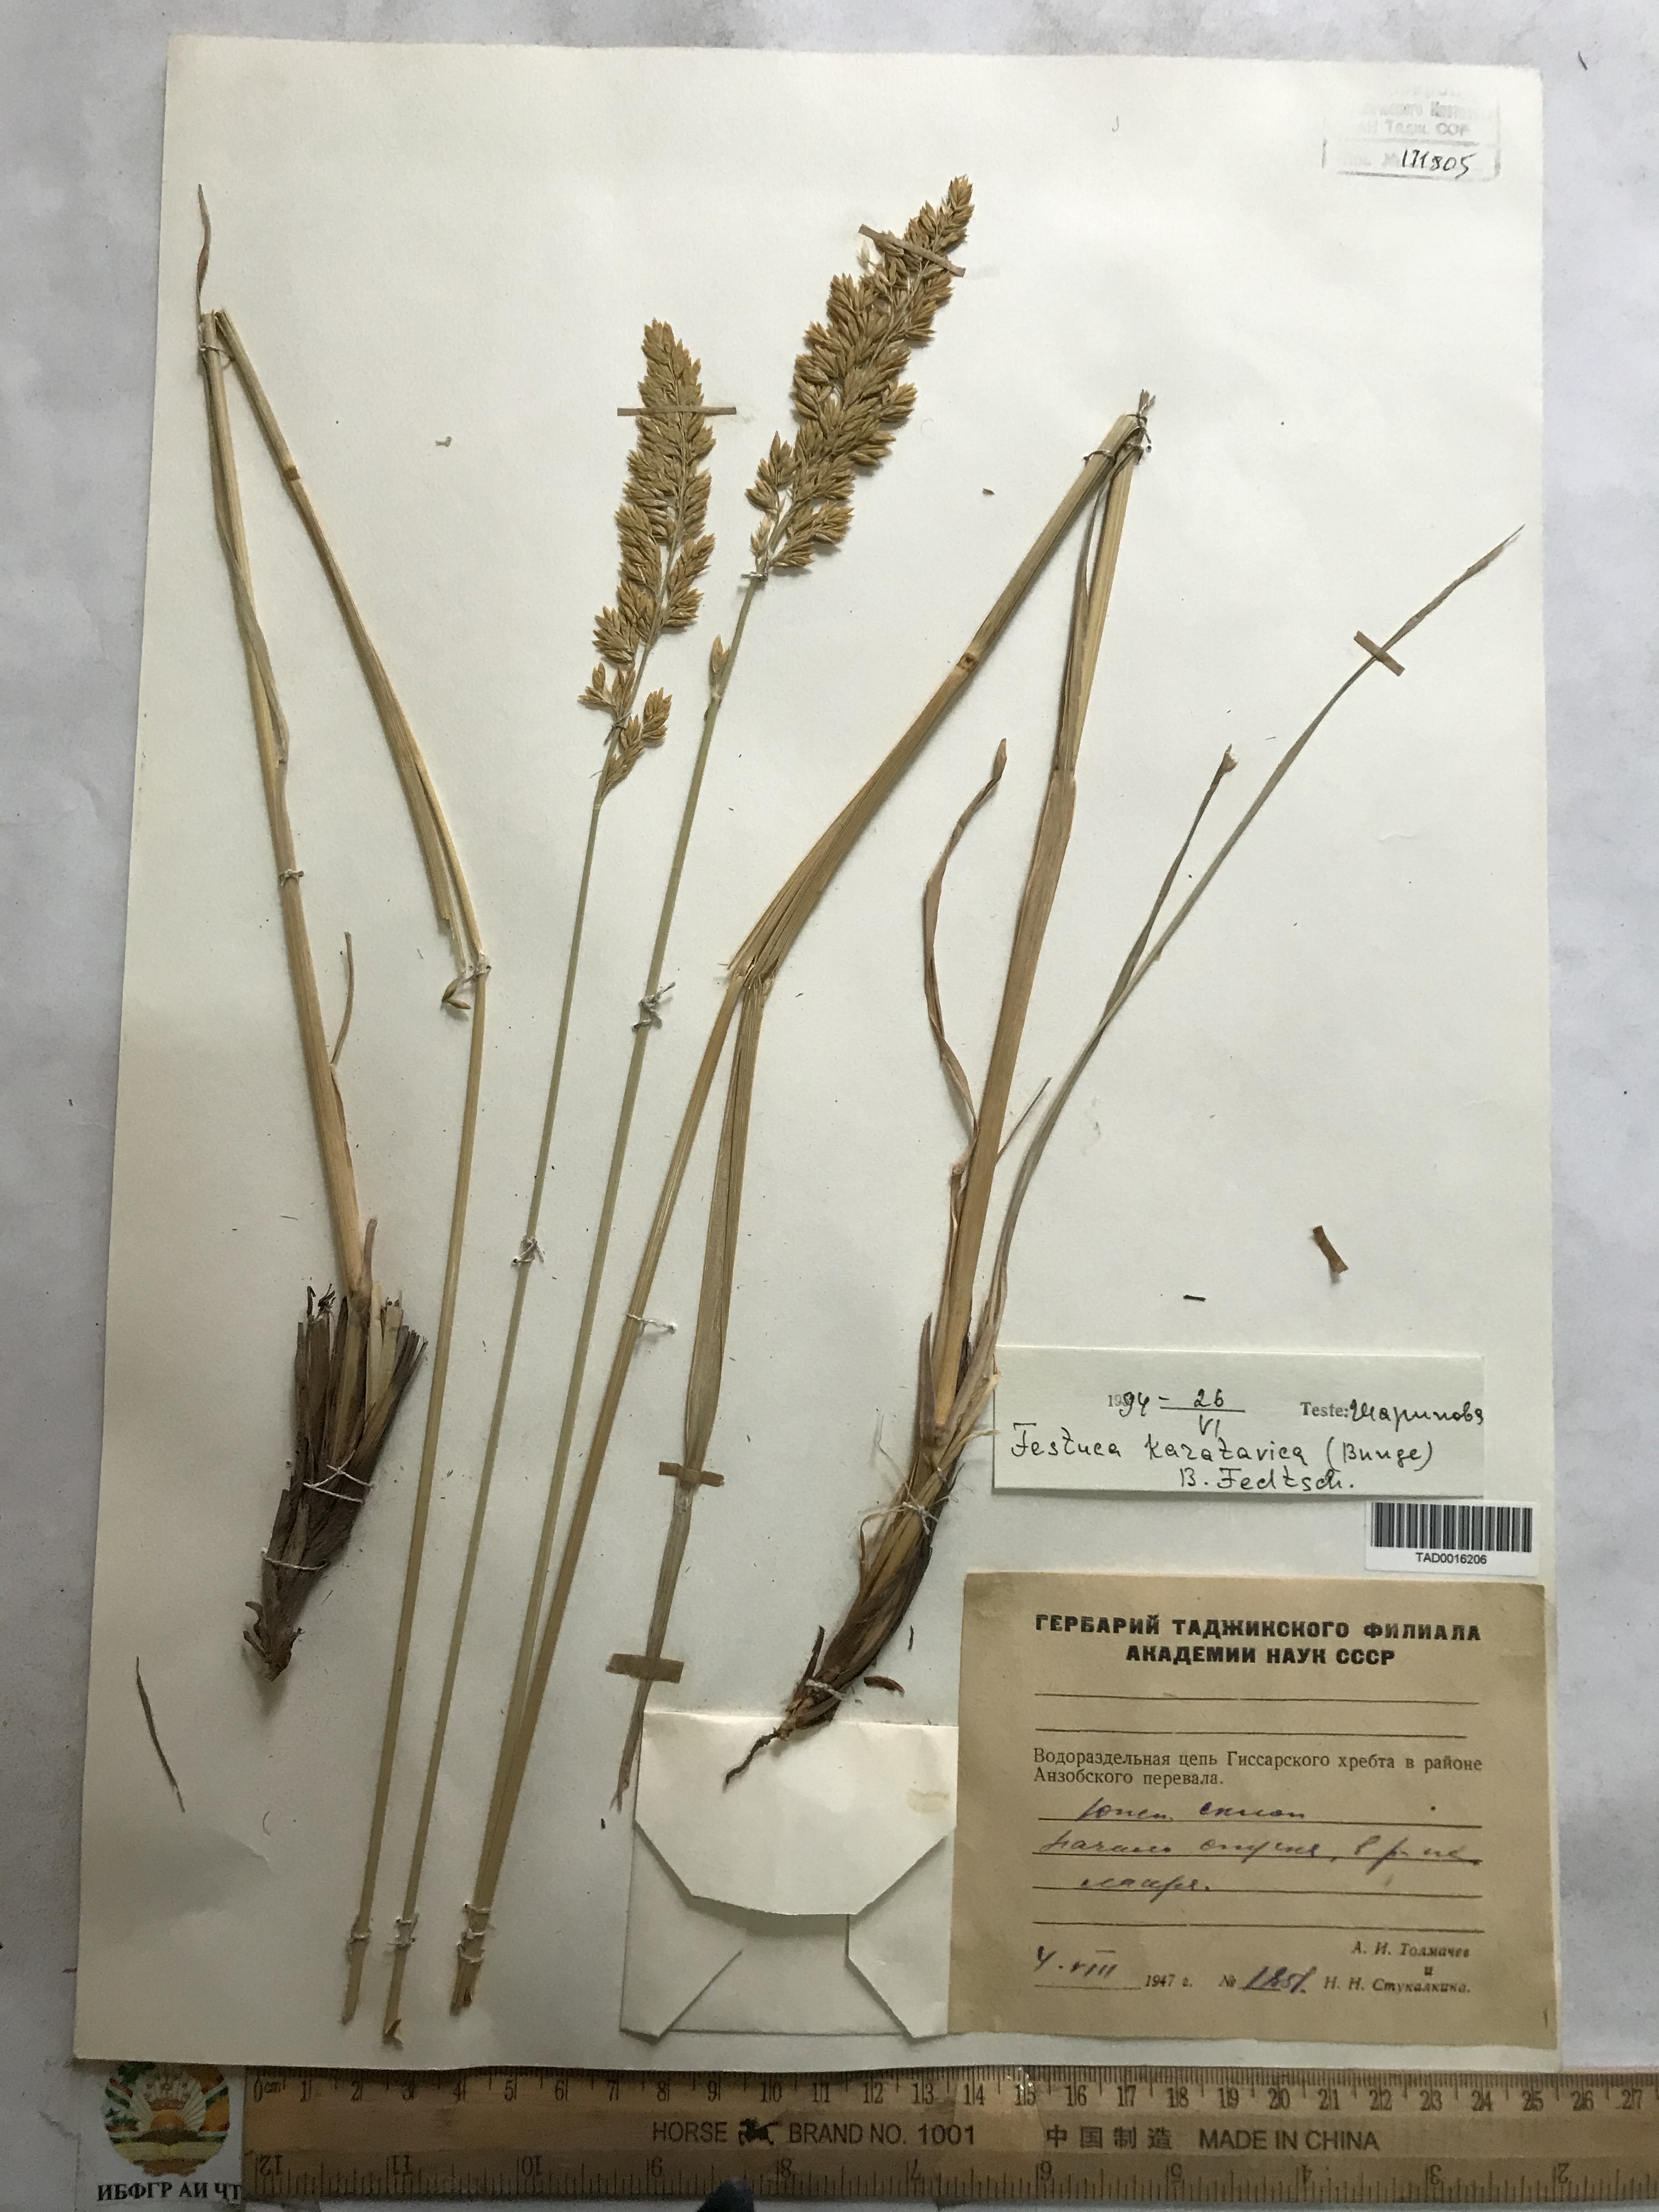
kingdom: Plantae
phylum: Tracheophyta
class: Liliopsida
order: Poales
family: Poaceae
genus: Festuca
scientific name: Festuca karatavica
